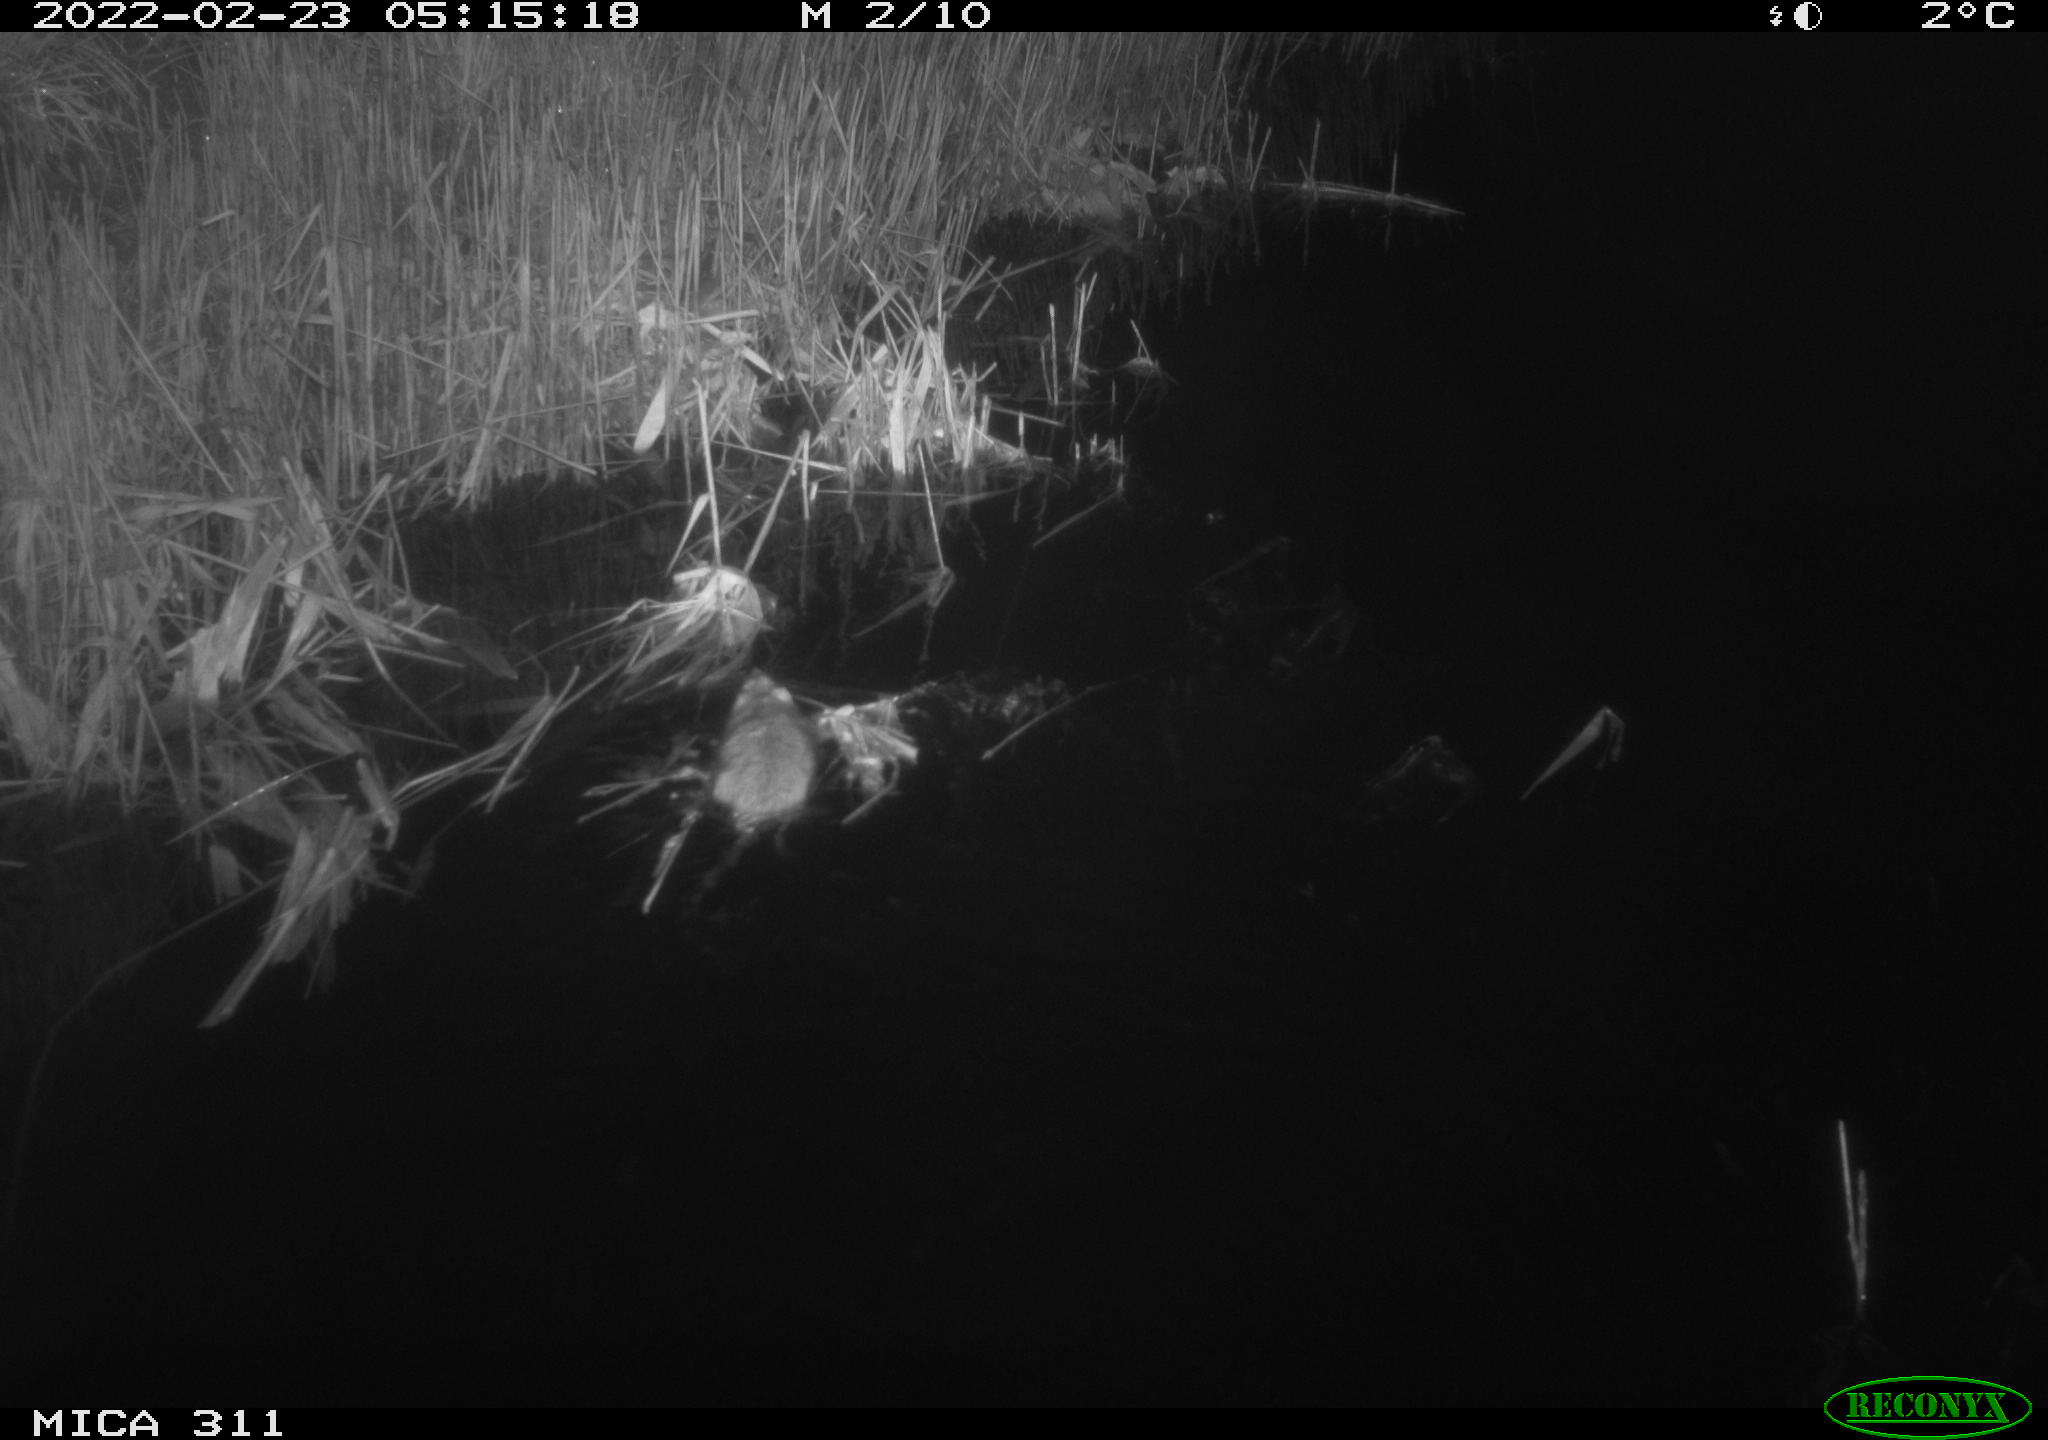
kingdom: Animalia
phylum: Chordata
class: Mammalia
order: Rodentia
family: Cricetidae
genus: Ondatra
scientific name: Ondatra zibethicus
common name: Muskrat
